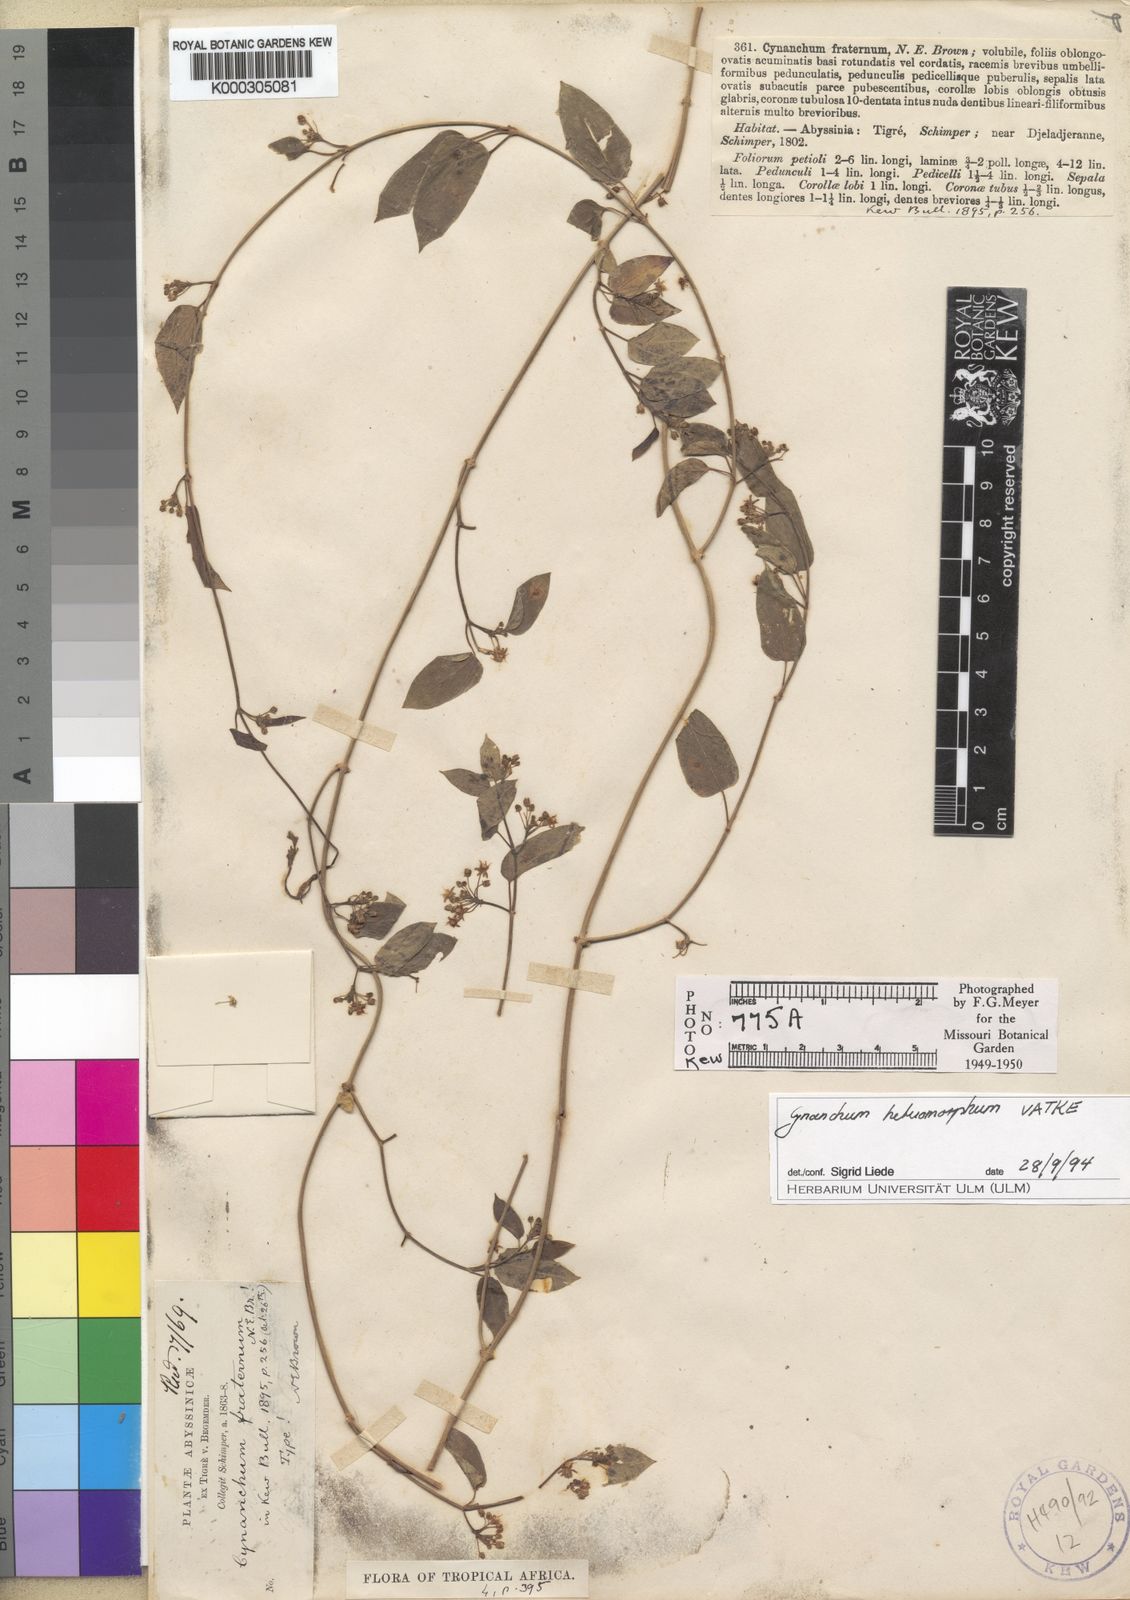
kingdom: Plantae
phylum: Tracheophyta
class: Magnoliopsida
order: Gentianales
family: Apocynaceae
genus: Cynanchum
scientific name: Cynanchum heteromorphum
